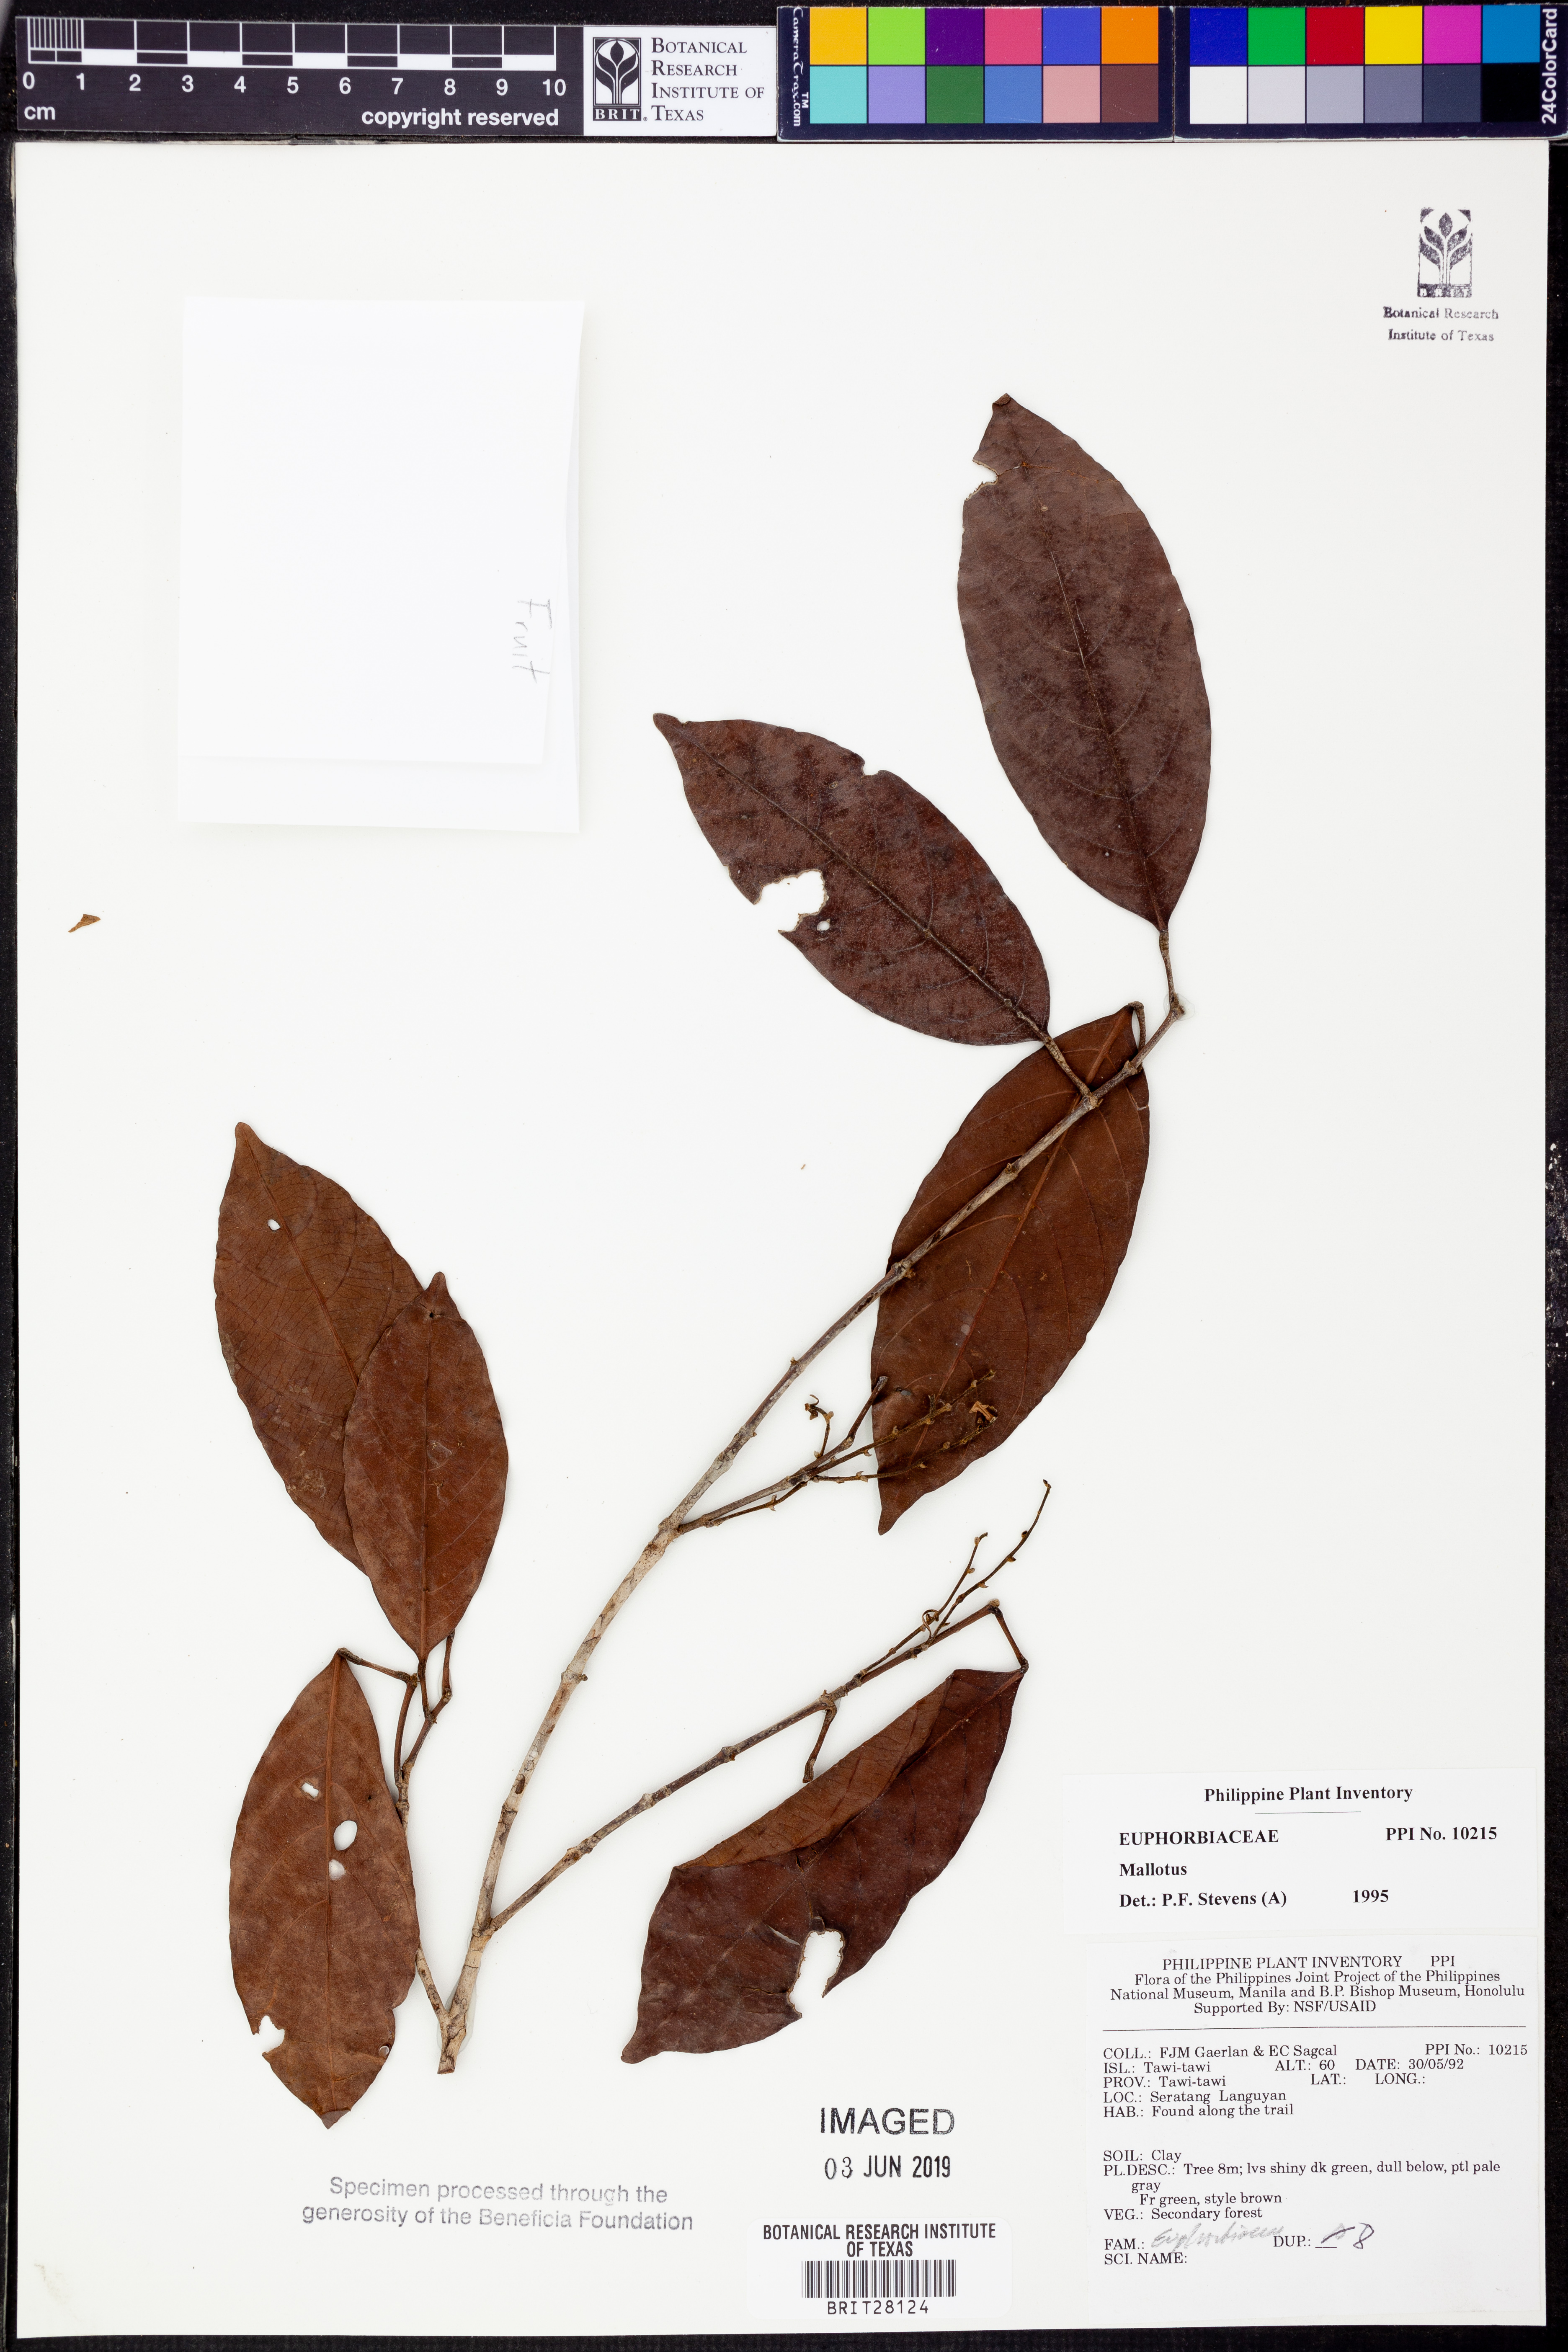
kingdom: Plantae
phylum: Tracheophyta
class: Magnoliopsida
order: Malpighiales
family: Euphorbiaceae
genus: Mallotus
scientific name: Mallotus
